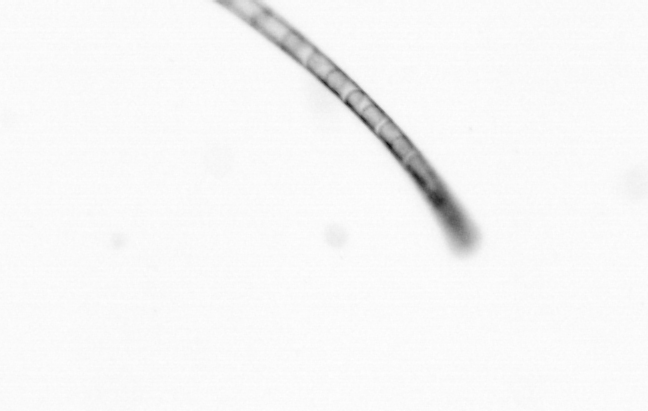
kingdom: Chromista
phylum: Ochrophyta
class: Bacillariophyceae
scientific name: Bacillariophyceae
